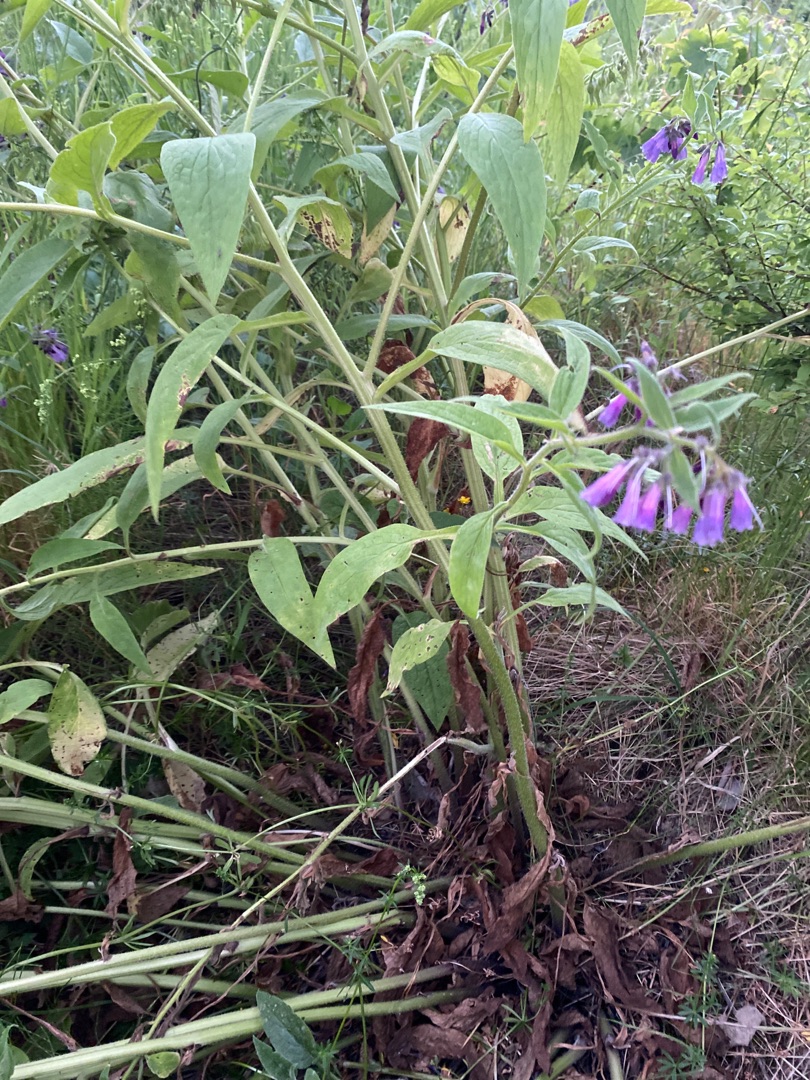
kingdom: Plantae
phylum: Tracheophyta
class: Magnoliopsida
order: Boraginales
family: Boraginaceae
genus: Symphytum
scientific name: Symphytum uplandicum
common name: Foder-kulsukker
